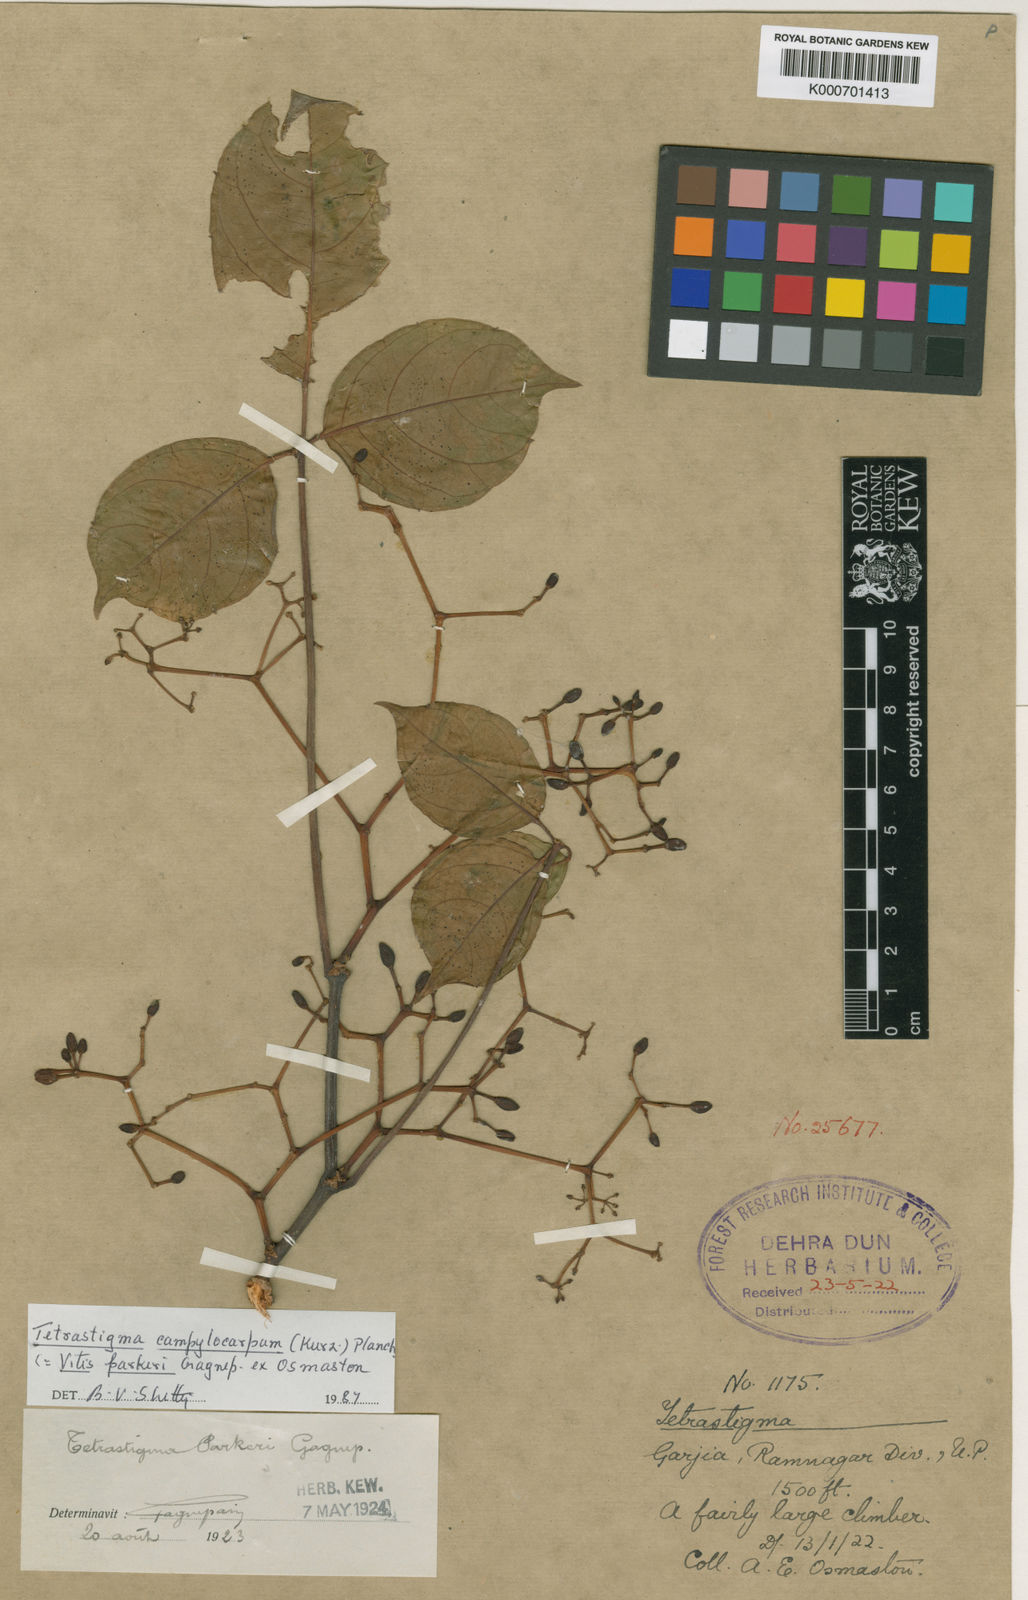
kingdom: Plantae
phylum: Tracheophyta
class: Magnoliopsida
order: Vitales
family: Vitaceae
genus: Tetrastigma
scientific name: Tetrastigma campylocarpum
